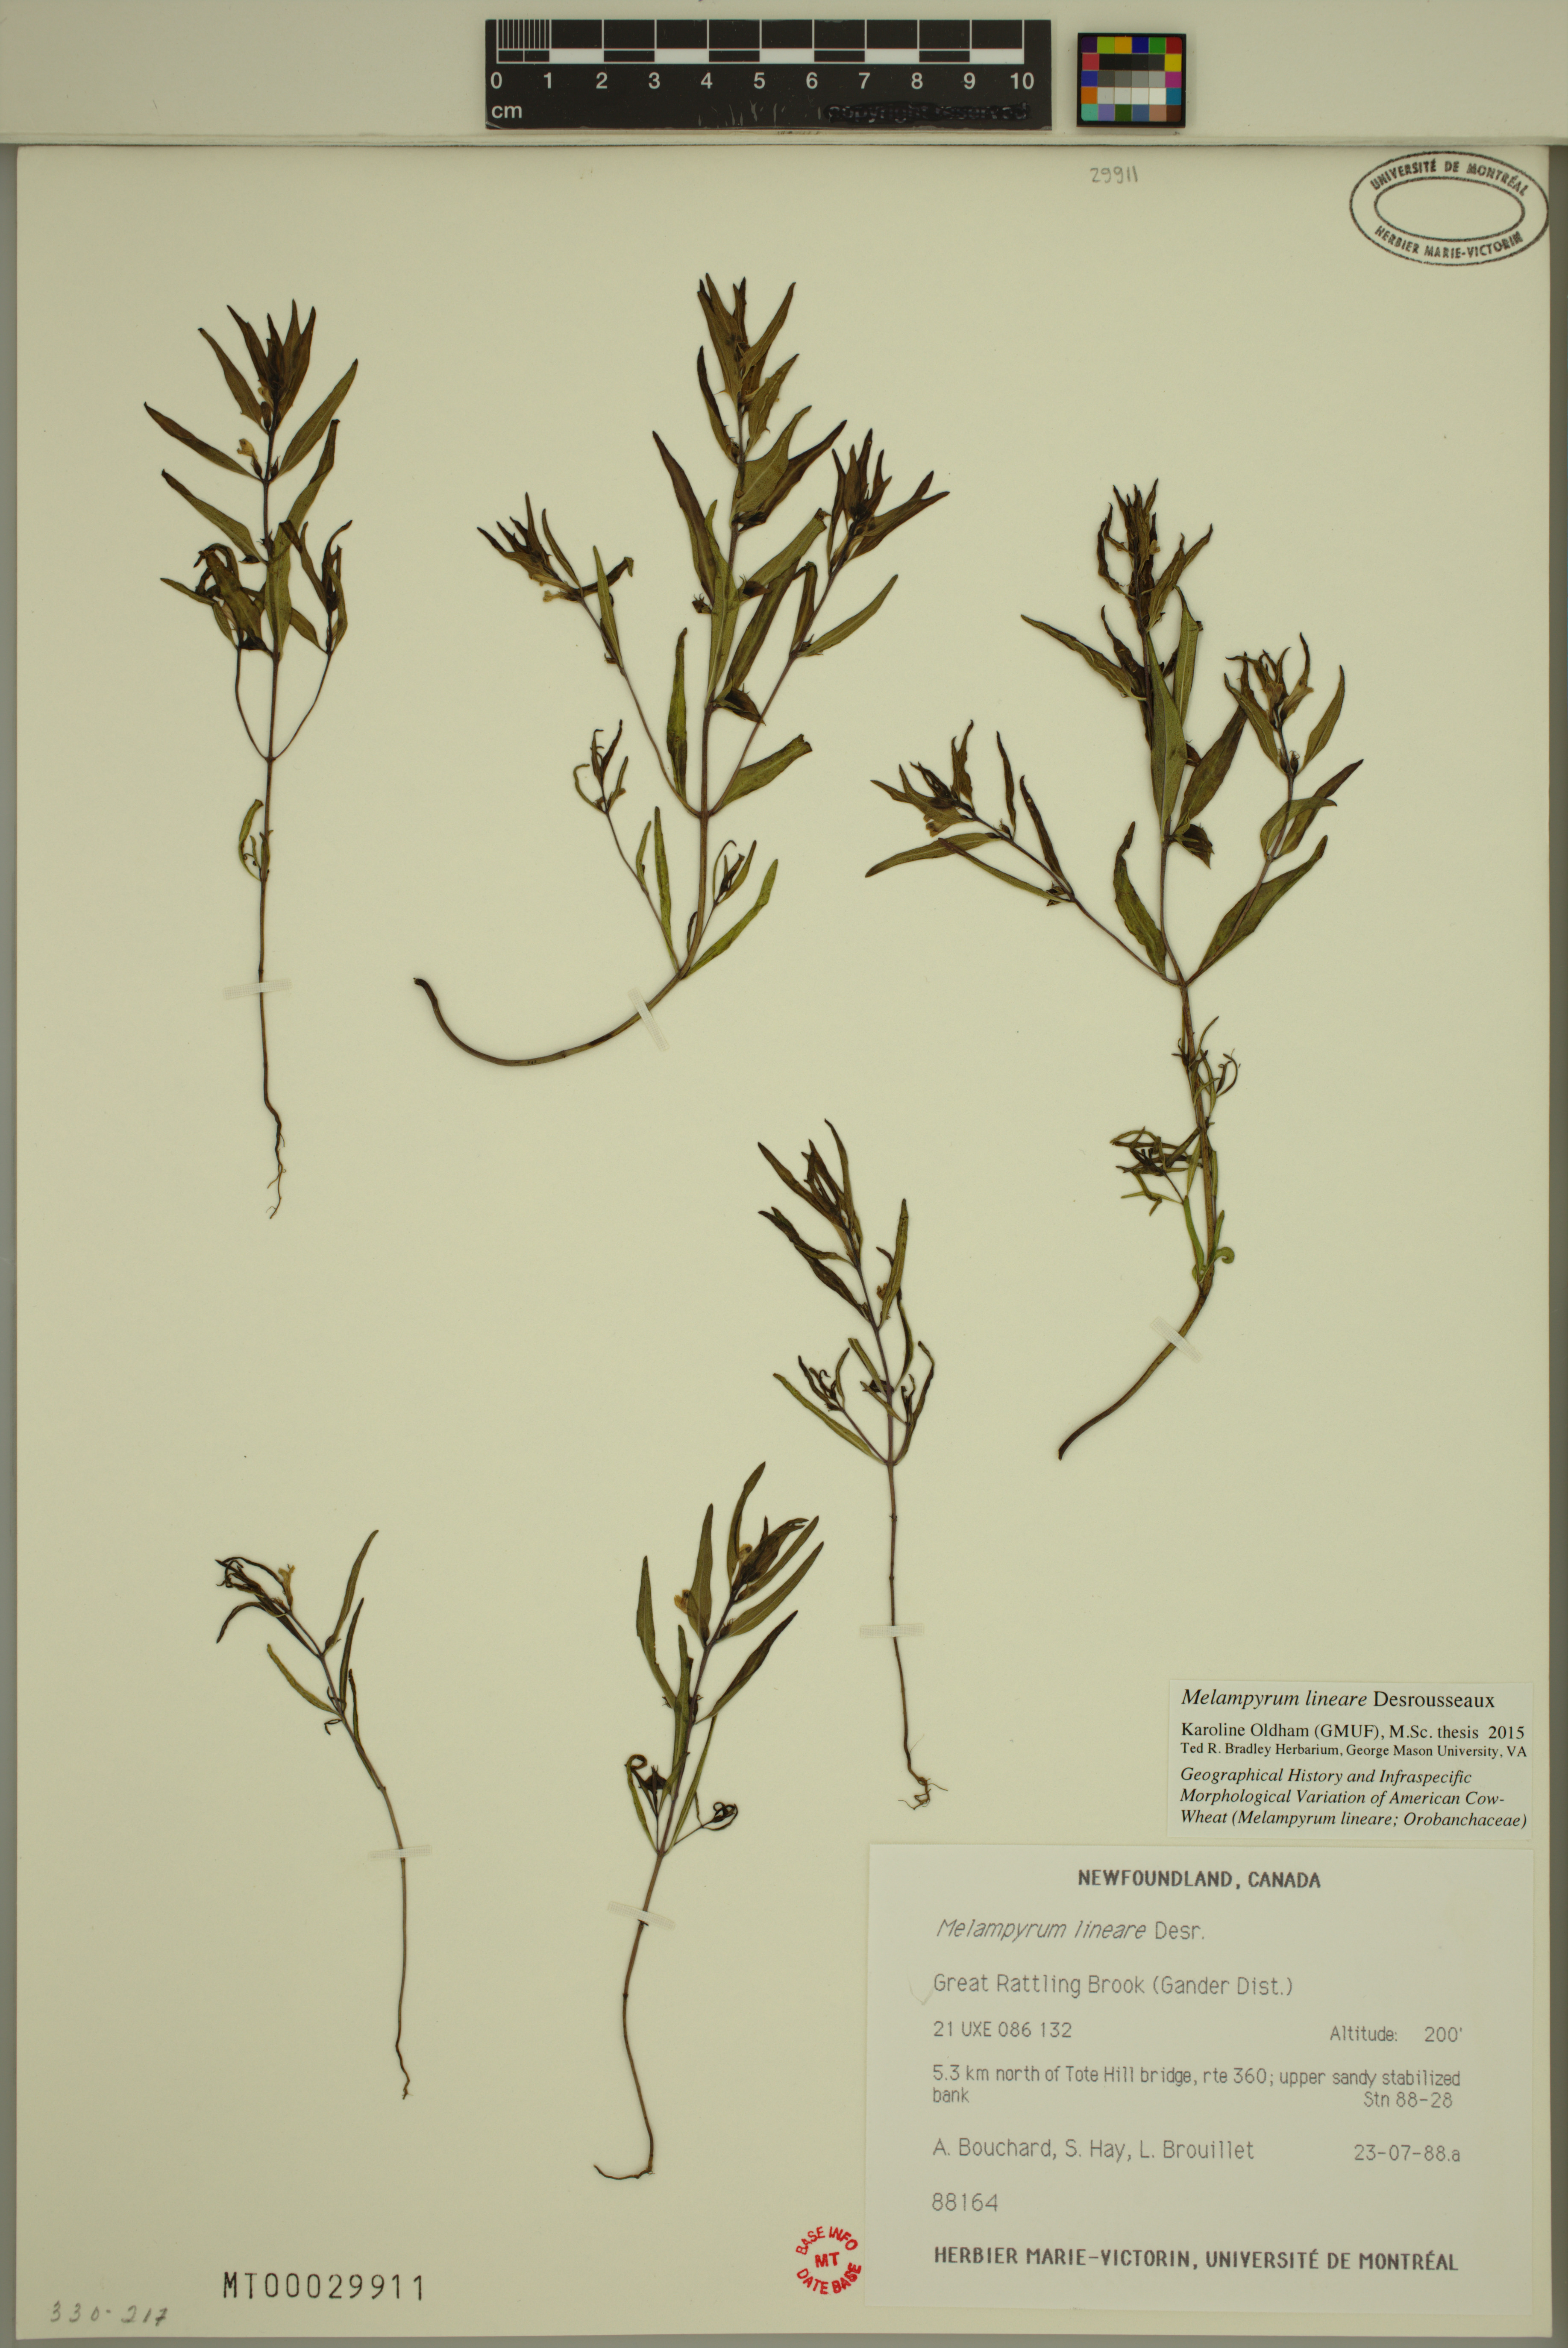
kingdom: Plantae
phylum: Tracheophyta
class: Magnoliopsida
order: Lamiales
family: Orobanchaceae
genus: Melampyrum
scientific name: Melampyrum lineare
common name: American cow-wheat
